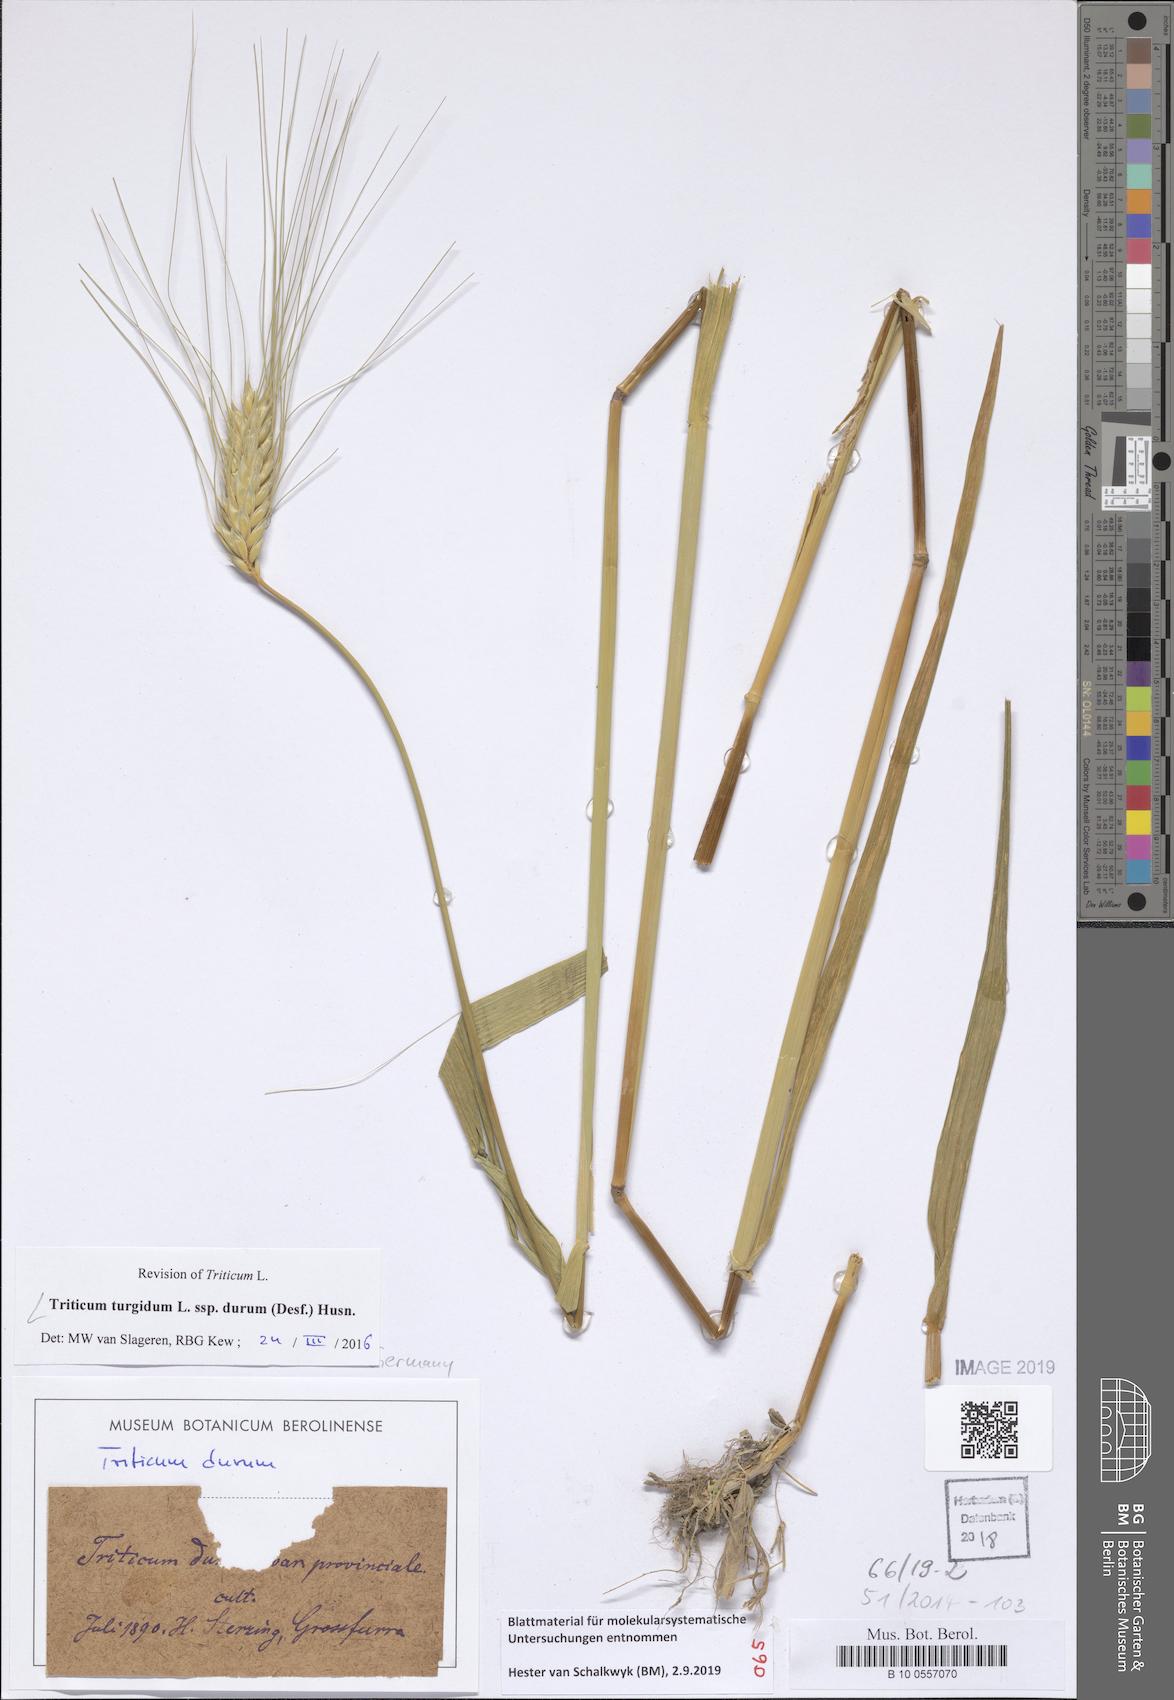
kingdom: Plantae
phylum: Tracheophyta
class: Liliopsida
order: Poales
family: Poaceae
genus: Triticum
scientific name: Triticum turgidum
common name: Rivet wheat
